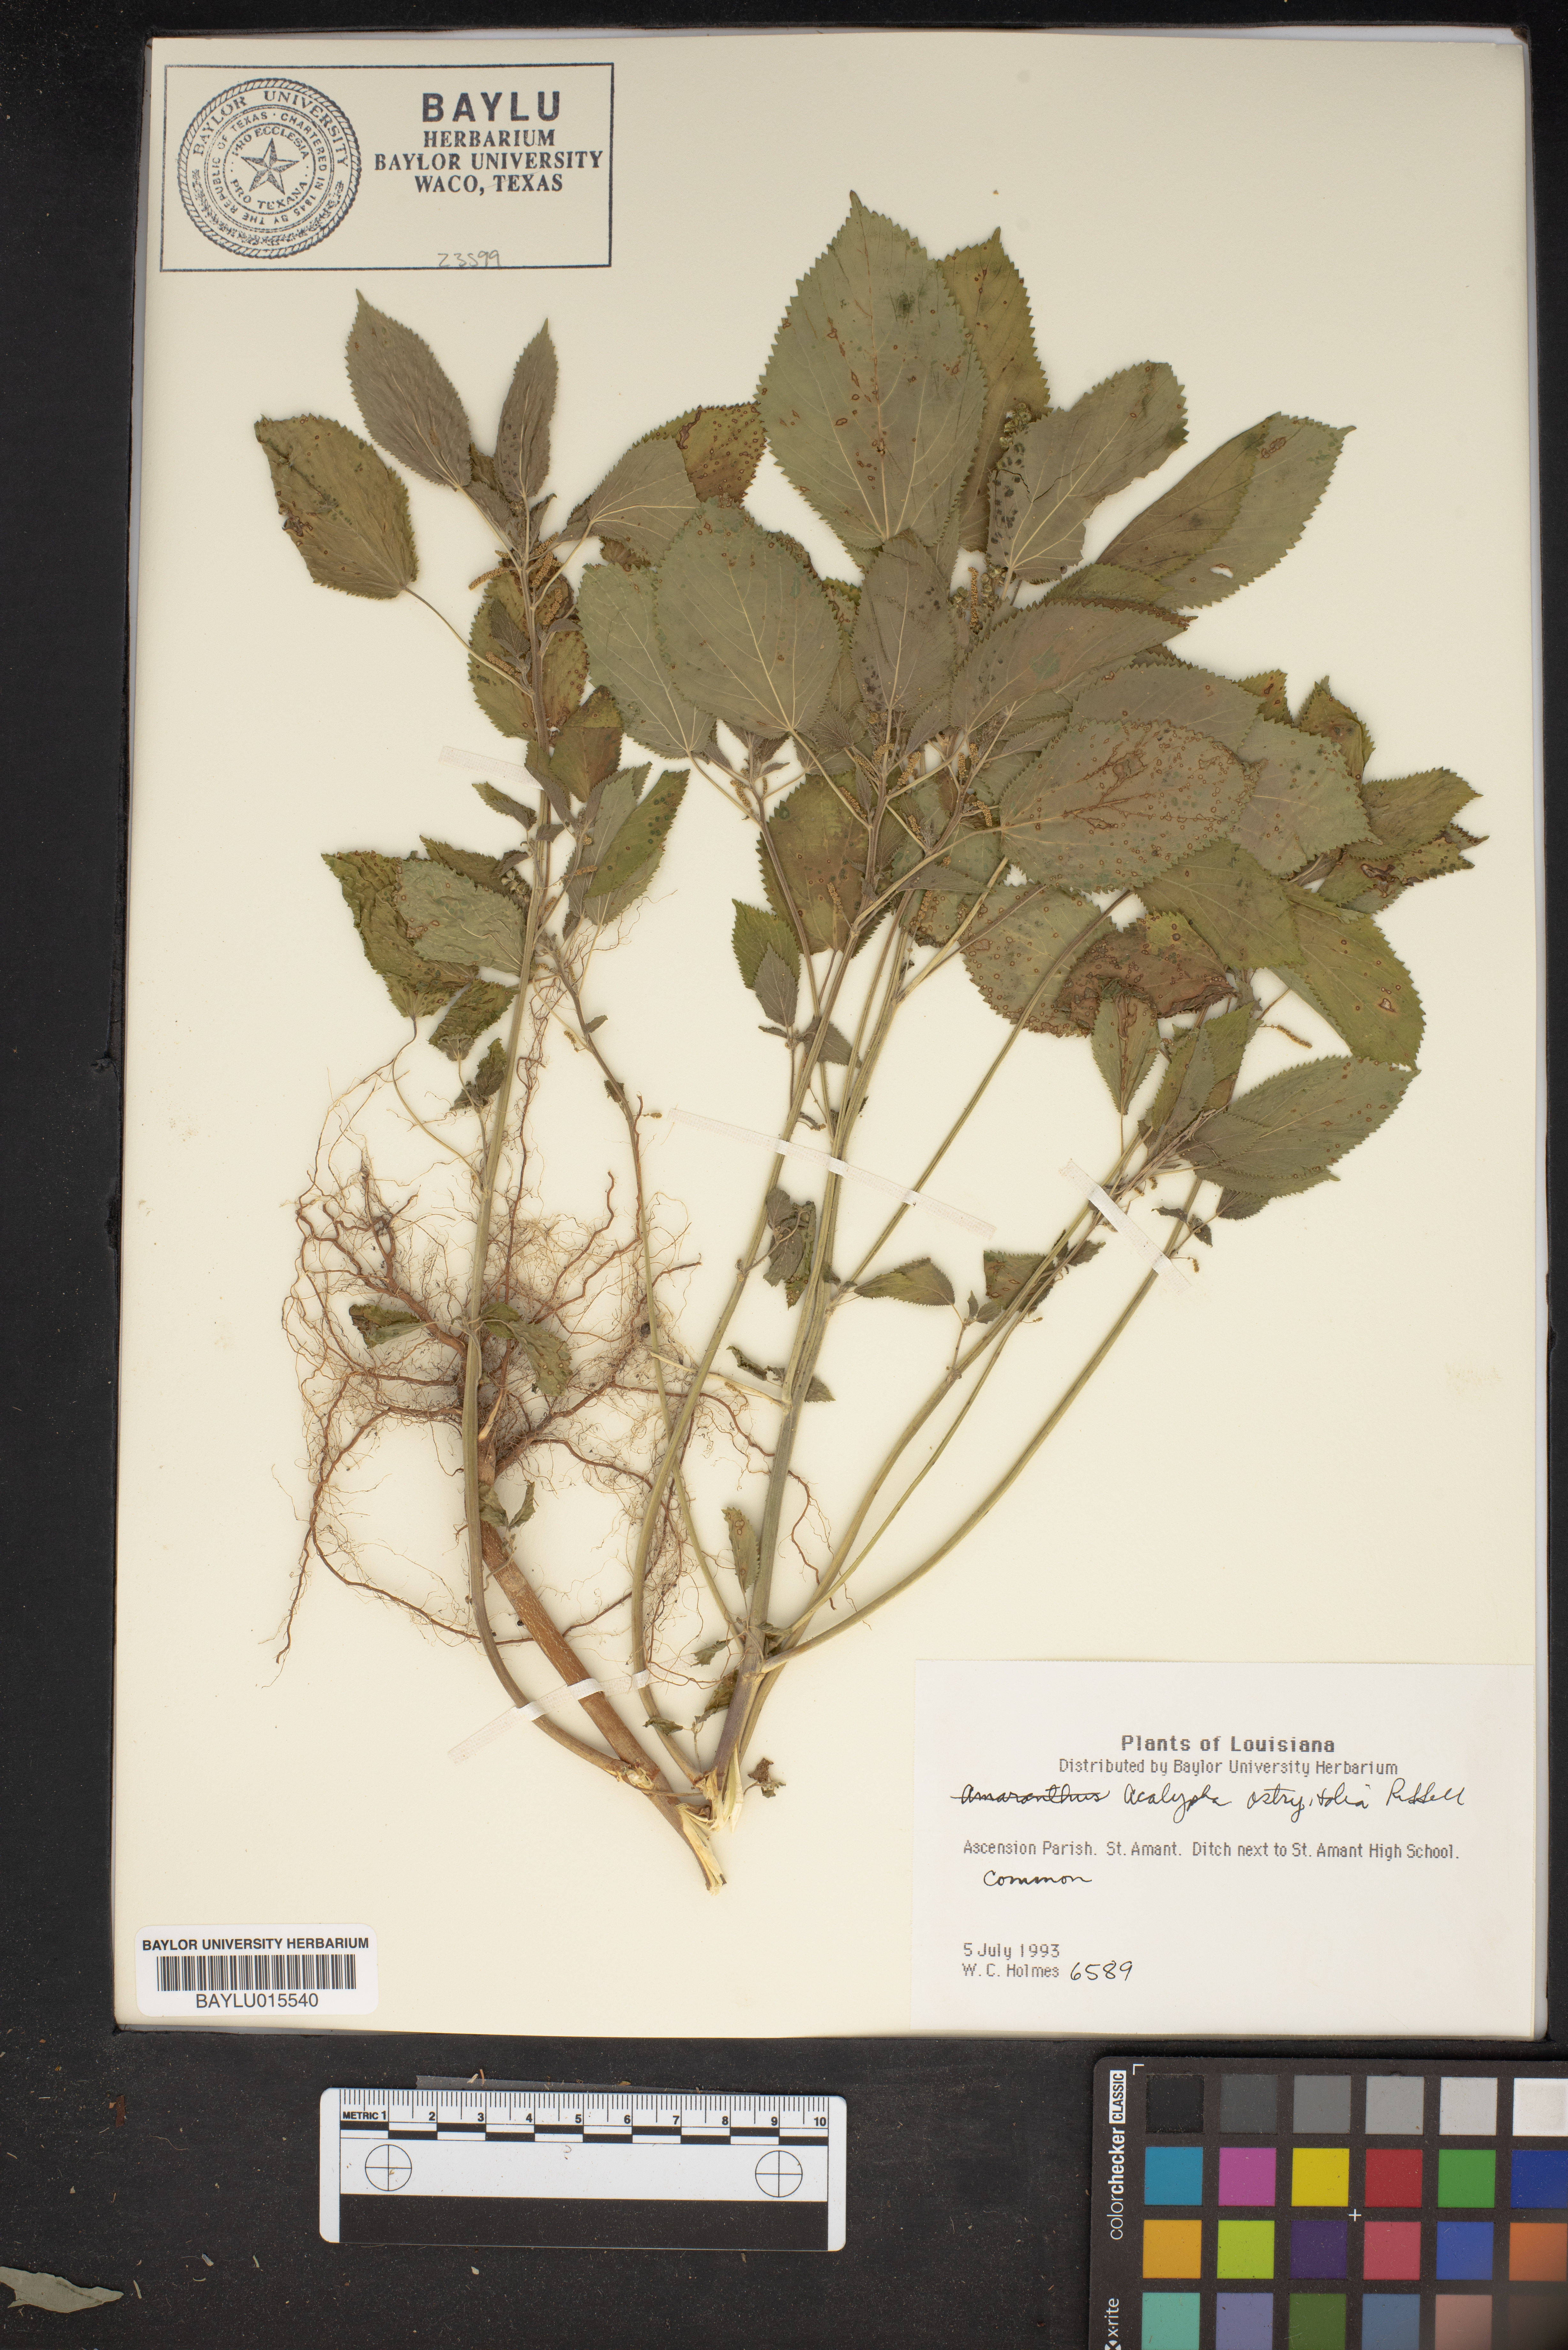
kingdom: Plantae
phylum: Tracheophyta
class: Magnoliopsida
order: Malpighiales
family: Euphorbiaceae
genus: Acalypha
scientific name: Acalypha persimilis
